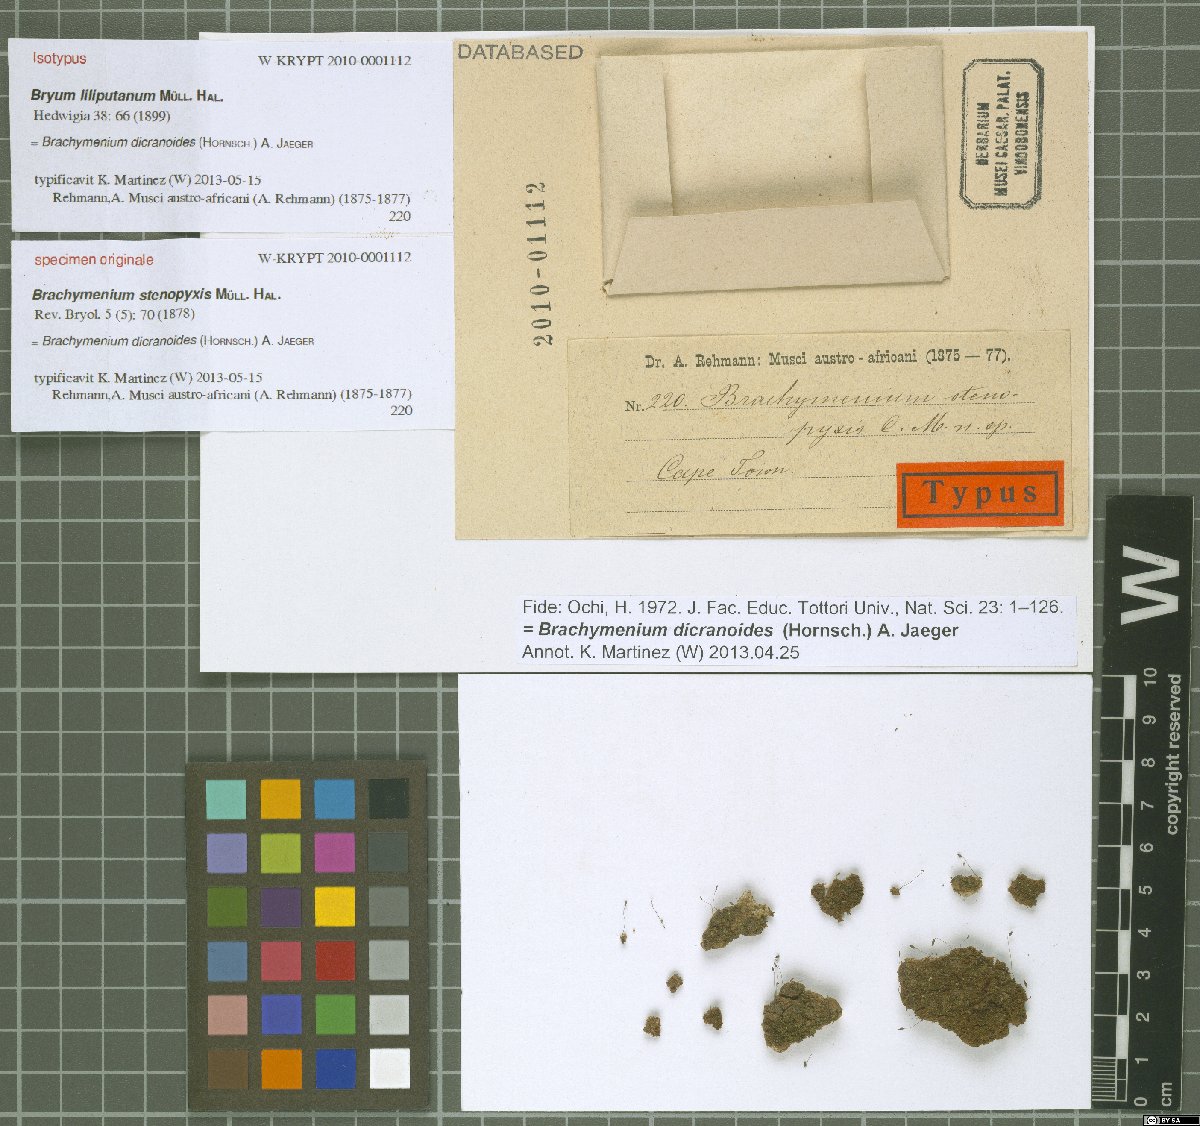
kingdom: Plantae
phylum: Bryophyta
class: Bryopsida
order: Bryales
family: Bryaceae
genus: Brachymenium
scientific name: Brachymenium dicranoides
